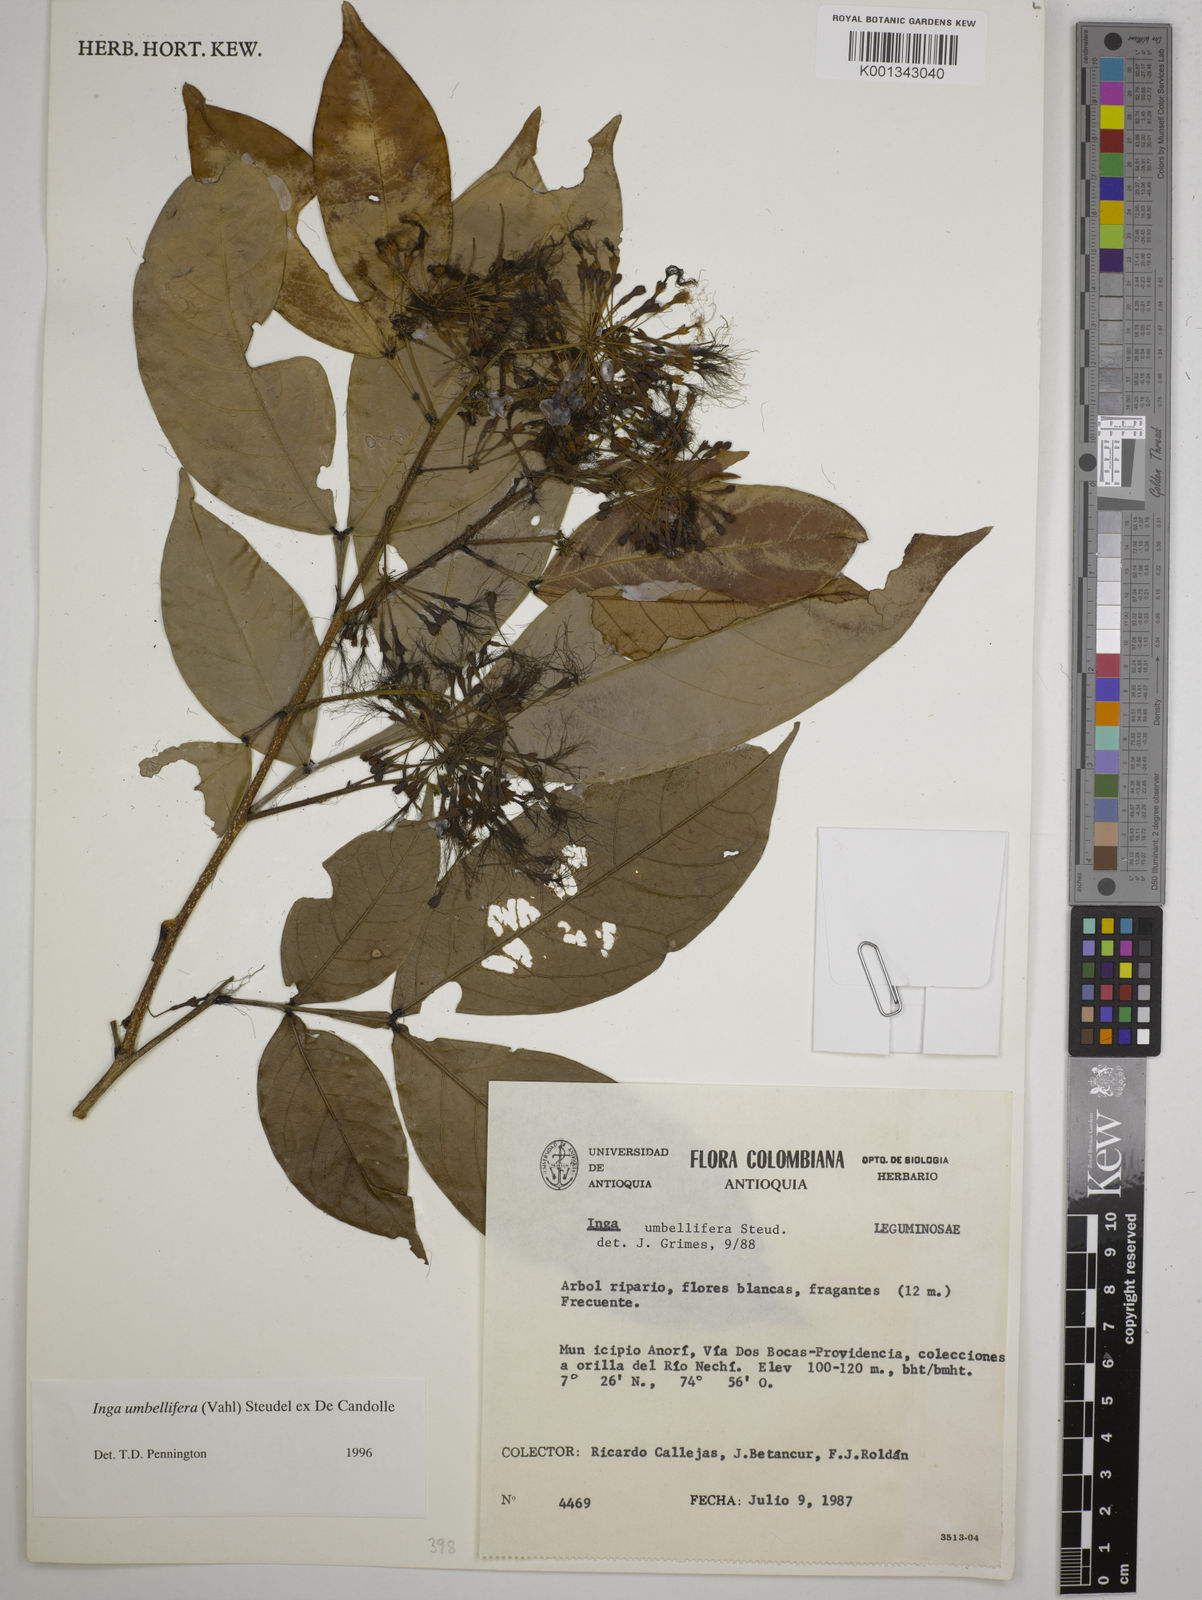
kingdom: Plantae
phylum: Tracheophyta
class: Magnoliopsida
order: Fabales
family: Fabaceae
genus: Inga
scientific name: Inga umbellifera
